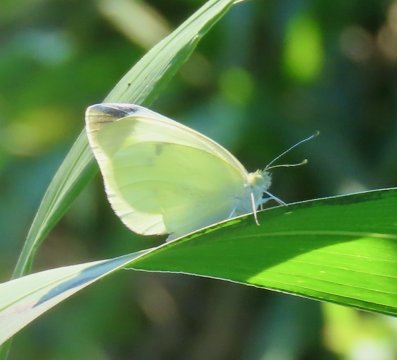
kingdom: Animalia
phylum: Arthropoda
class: Insecta
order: Lepidoptera
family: Pieridae
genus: Pieris
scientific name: Pieris rapae
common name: Cabbage White
